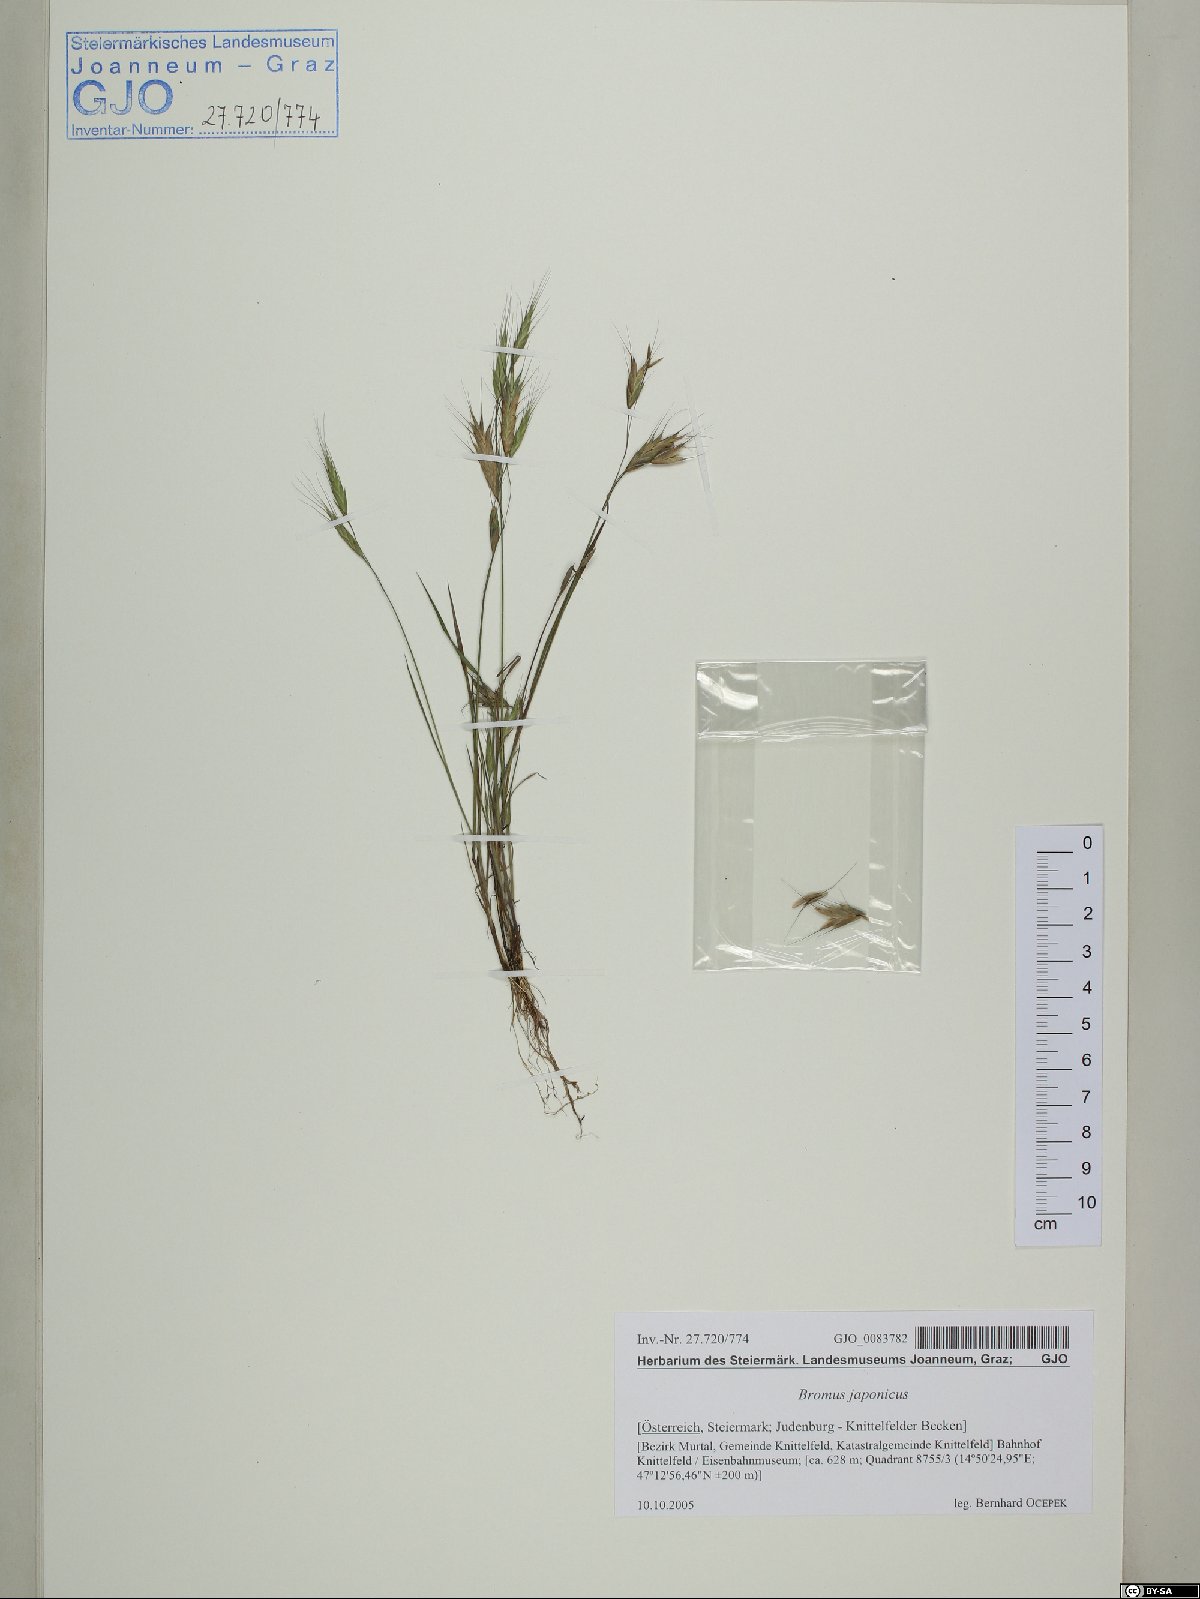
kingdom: Plantae
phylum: Tracheophyta
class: Liliopsida
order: Poales
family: Poaceae
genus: Bromus
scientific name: Bromus japonicus
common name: Japanese brome
